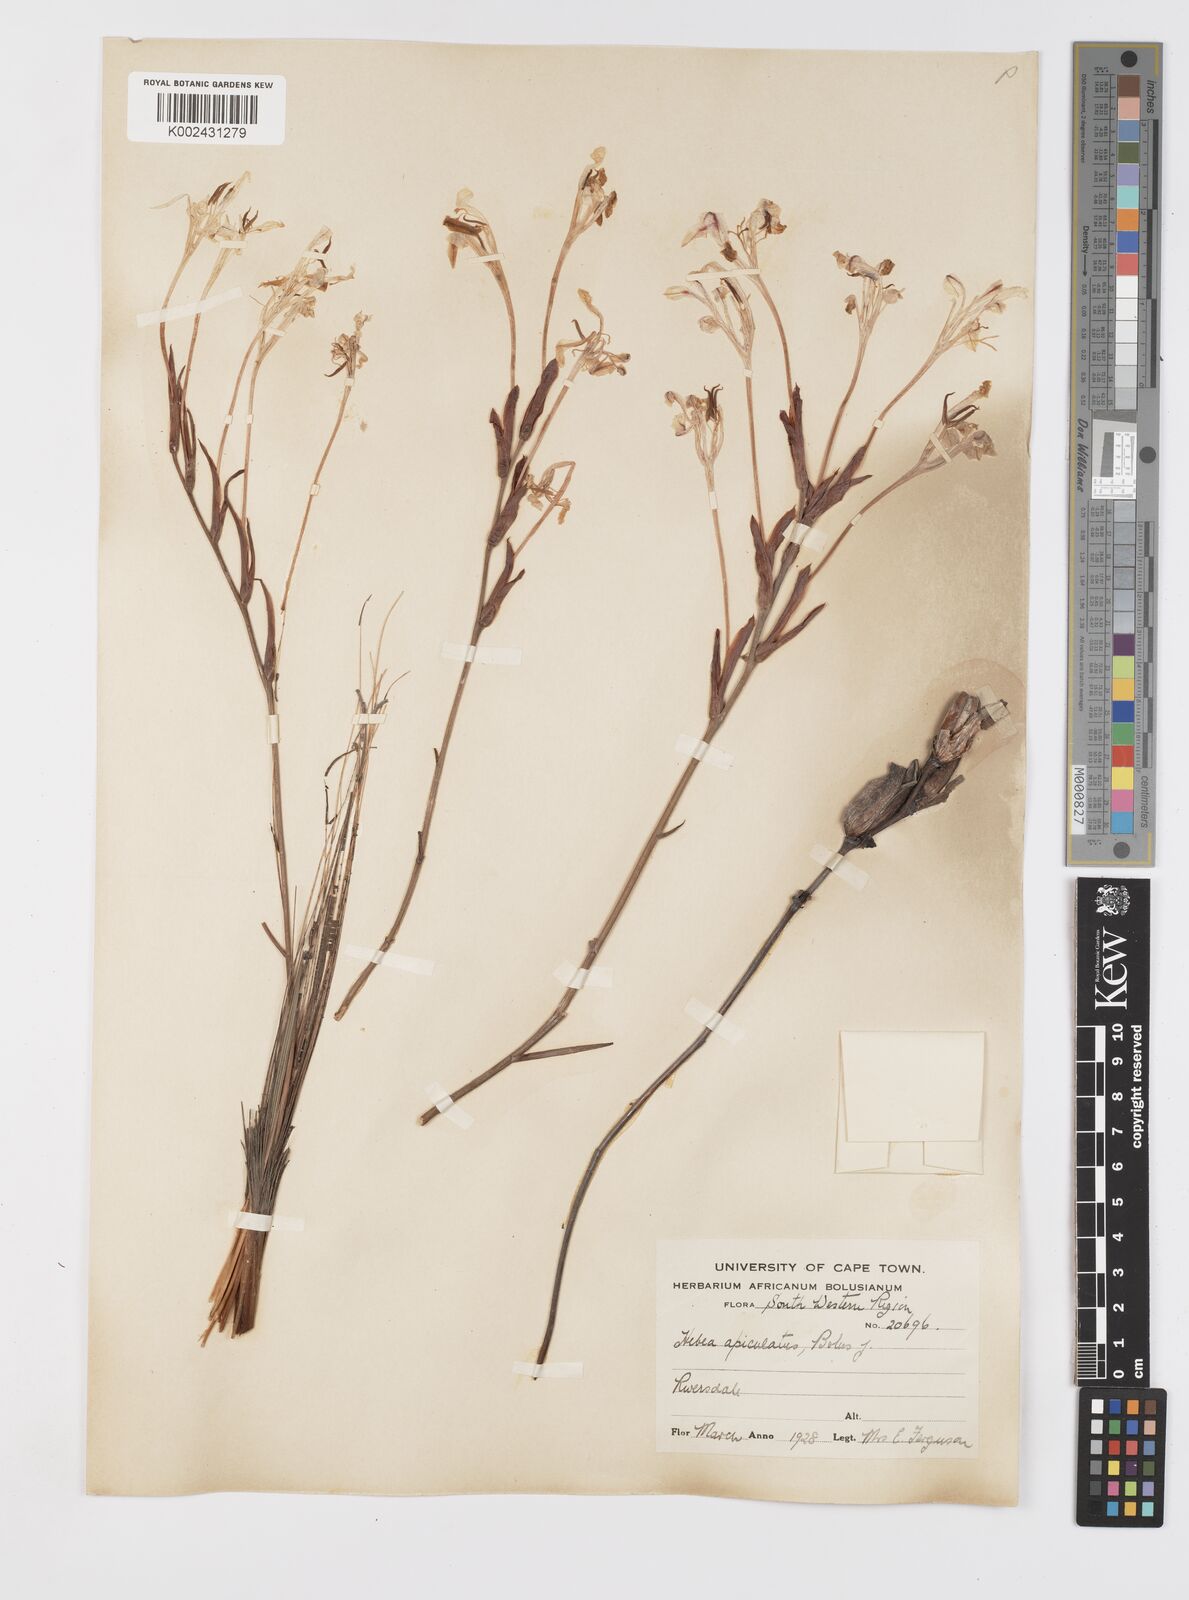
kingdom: Plantae
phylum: Tracheophyta
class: Liliopsida
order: Asparagales
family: Iridaceae
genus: Tritoniopsis
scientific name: Tritoniopsis revoluta
